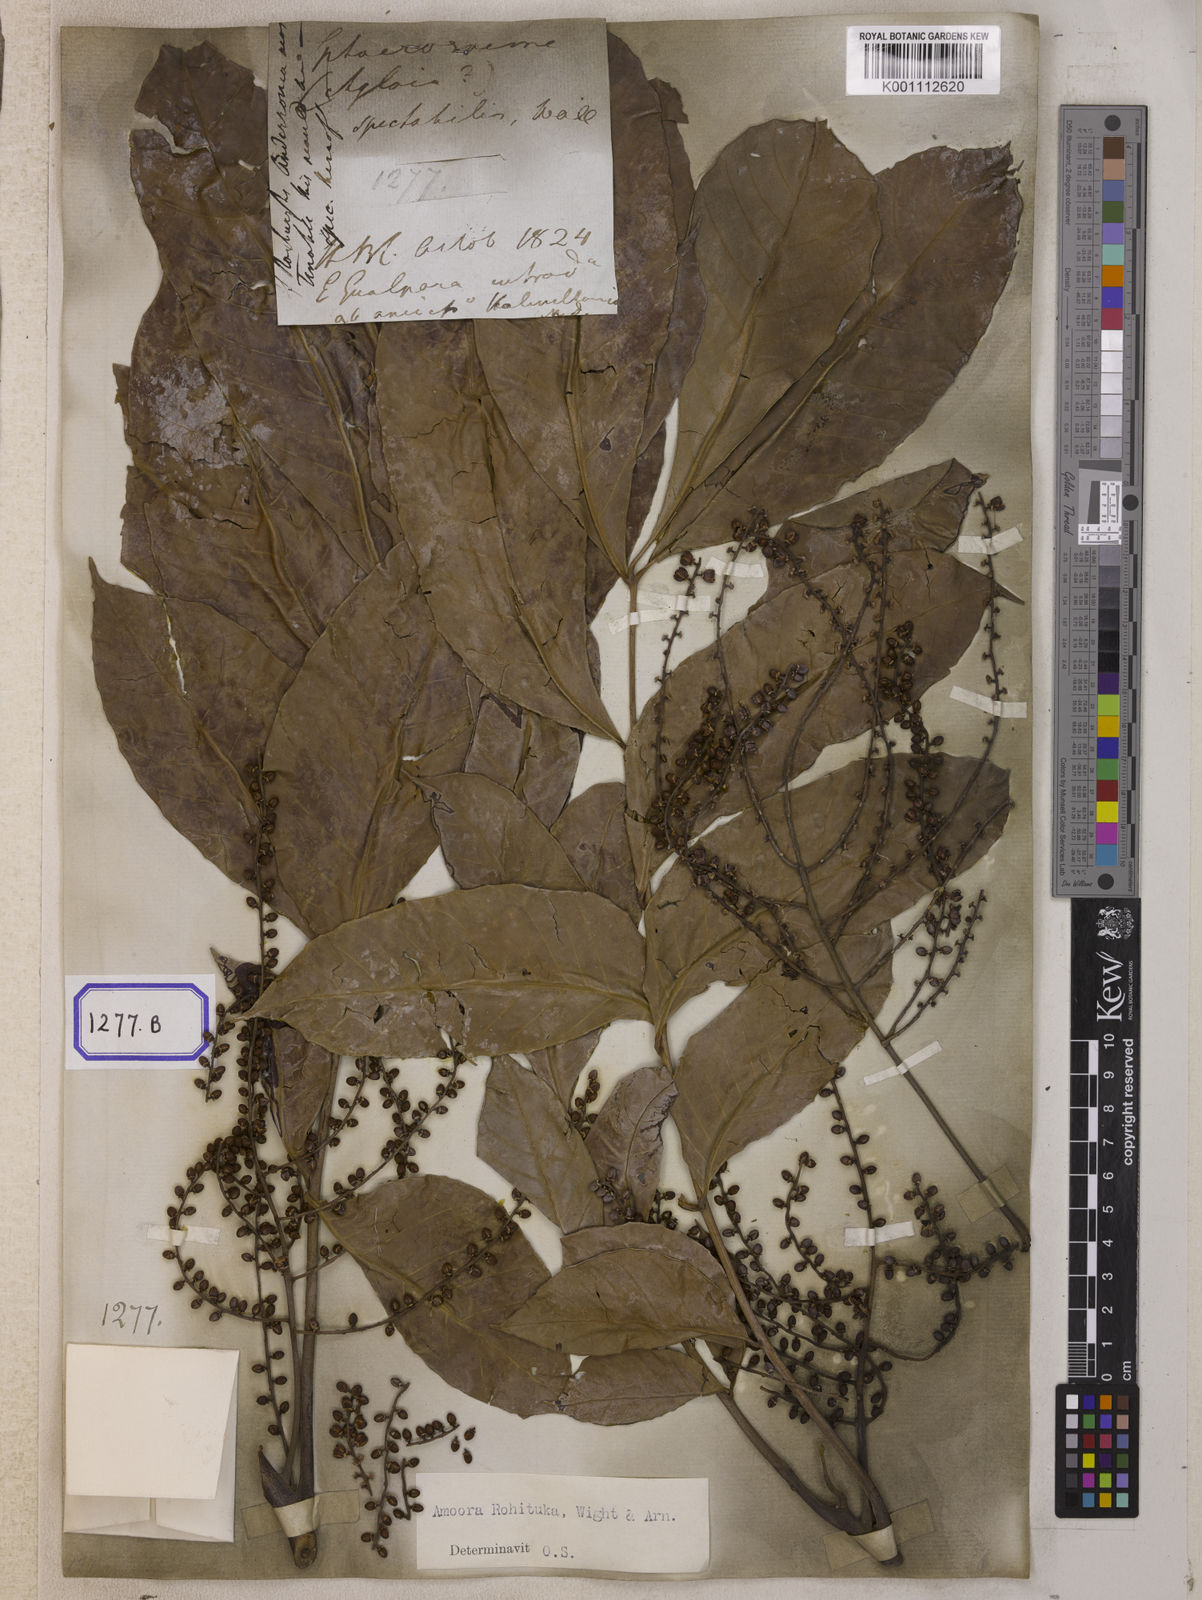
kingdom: Plantae
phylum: Tracheophyta
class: Magnoliopsida
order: Sapindales
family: Meliaceae
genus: Aphanamixis
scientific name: Aphanamixis polystachya
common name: Pithraj tree
